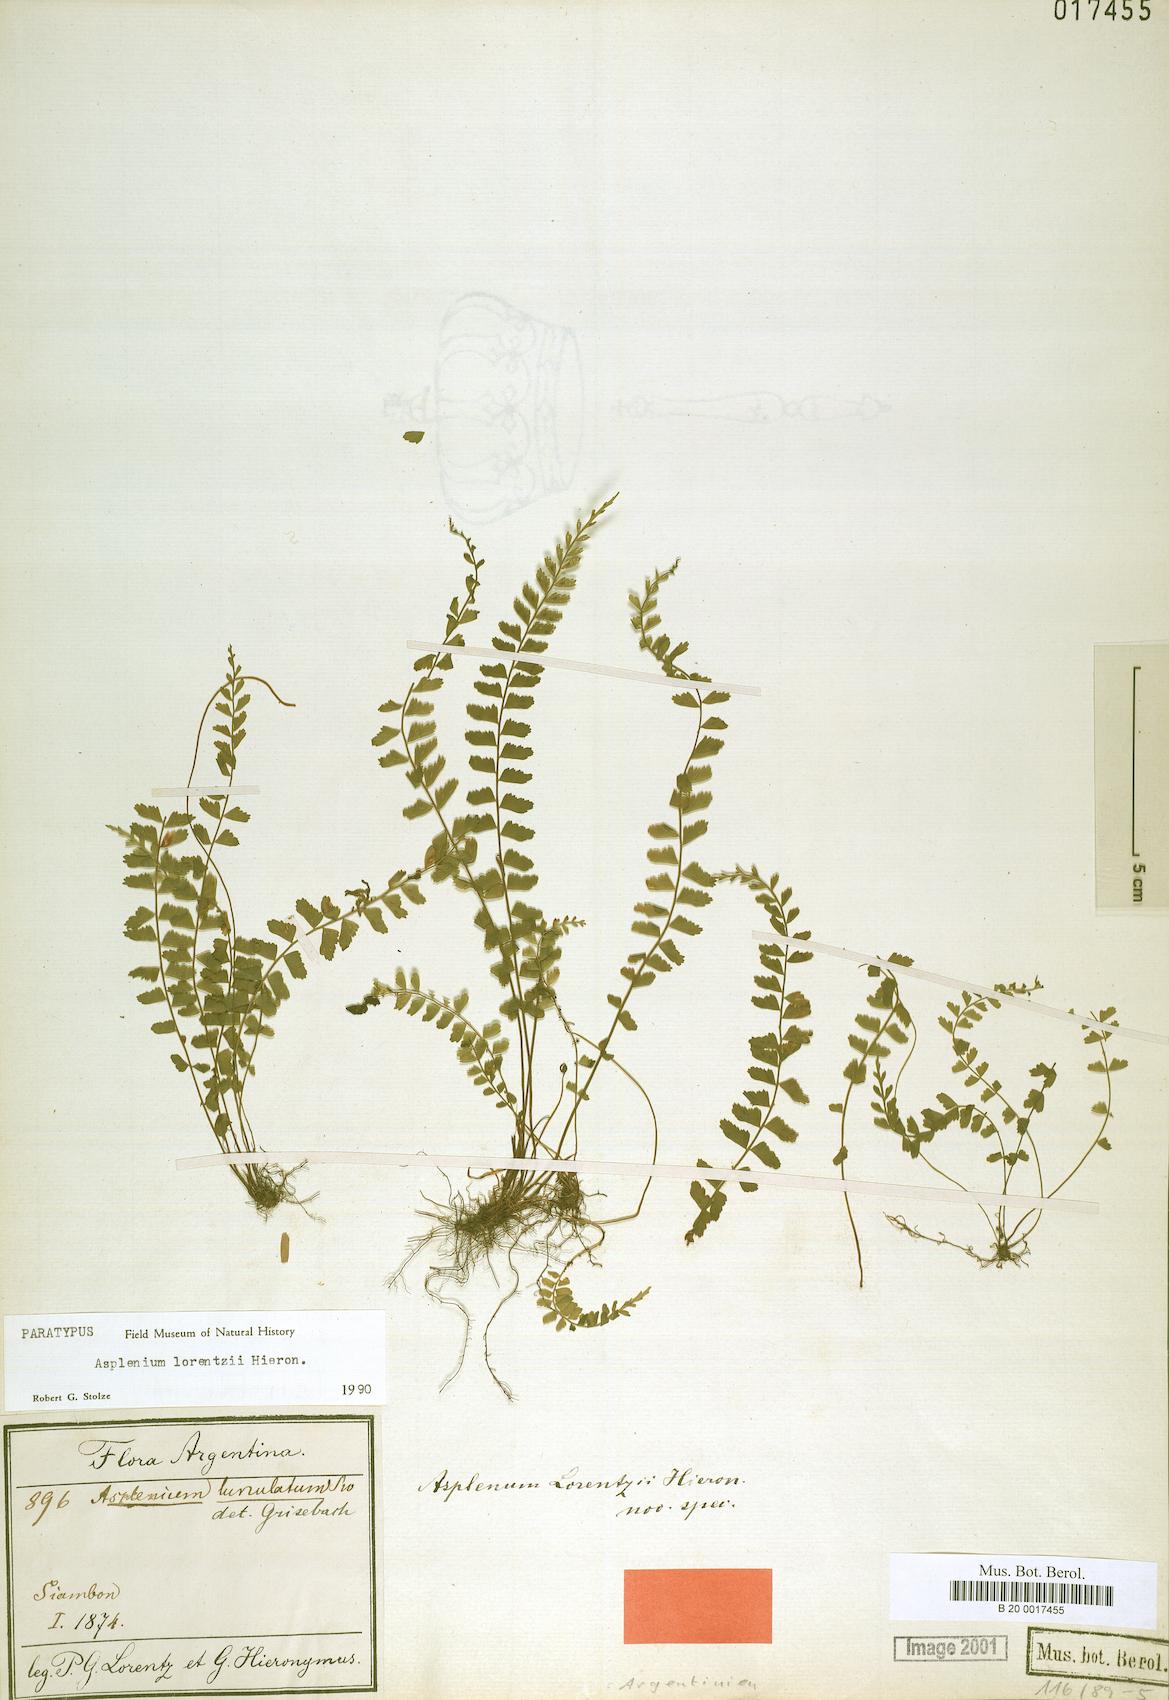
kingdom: Plantae
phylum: Tracheophyta
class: Polypodiopsida
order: Polypodiales
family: Thelypteridaceae
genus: Amauropelta
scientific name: Amauropelta argentina
